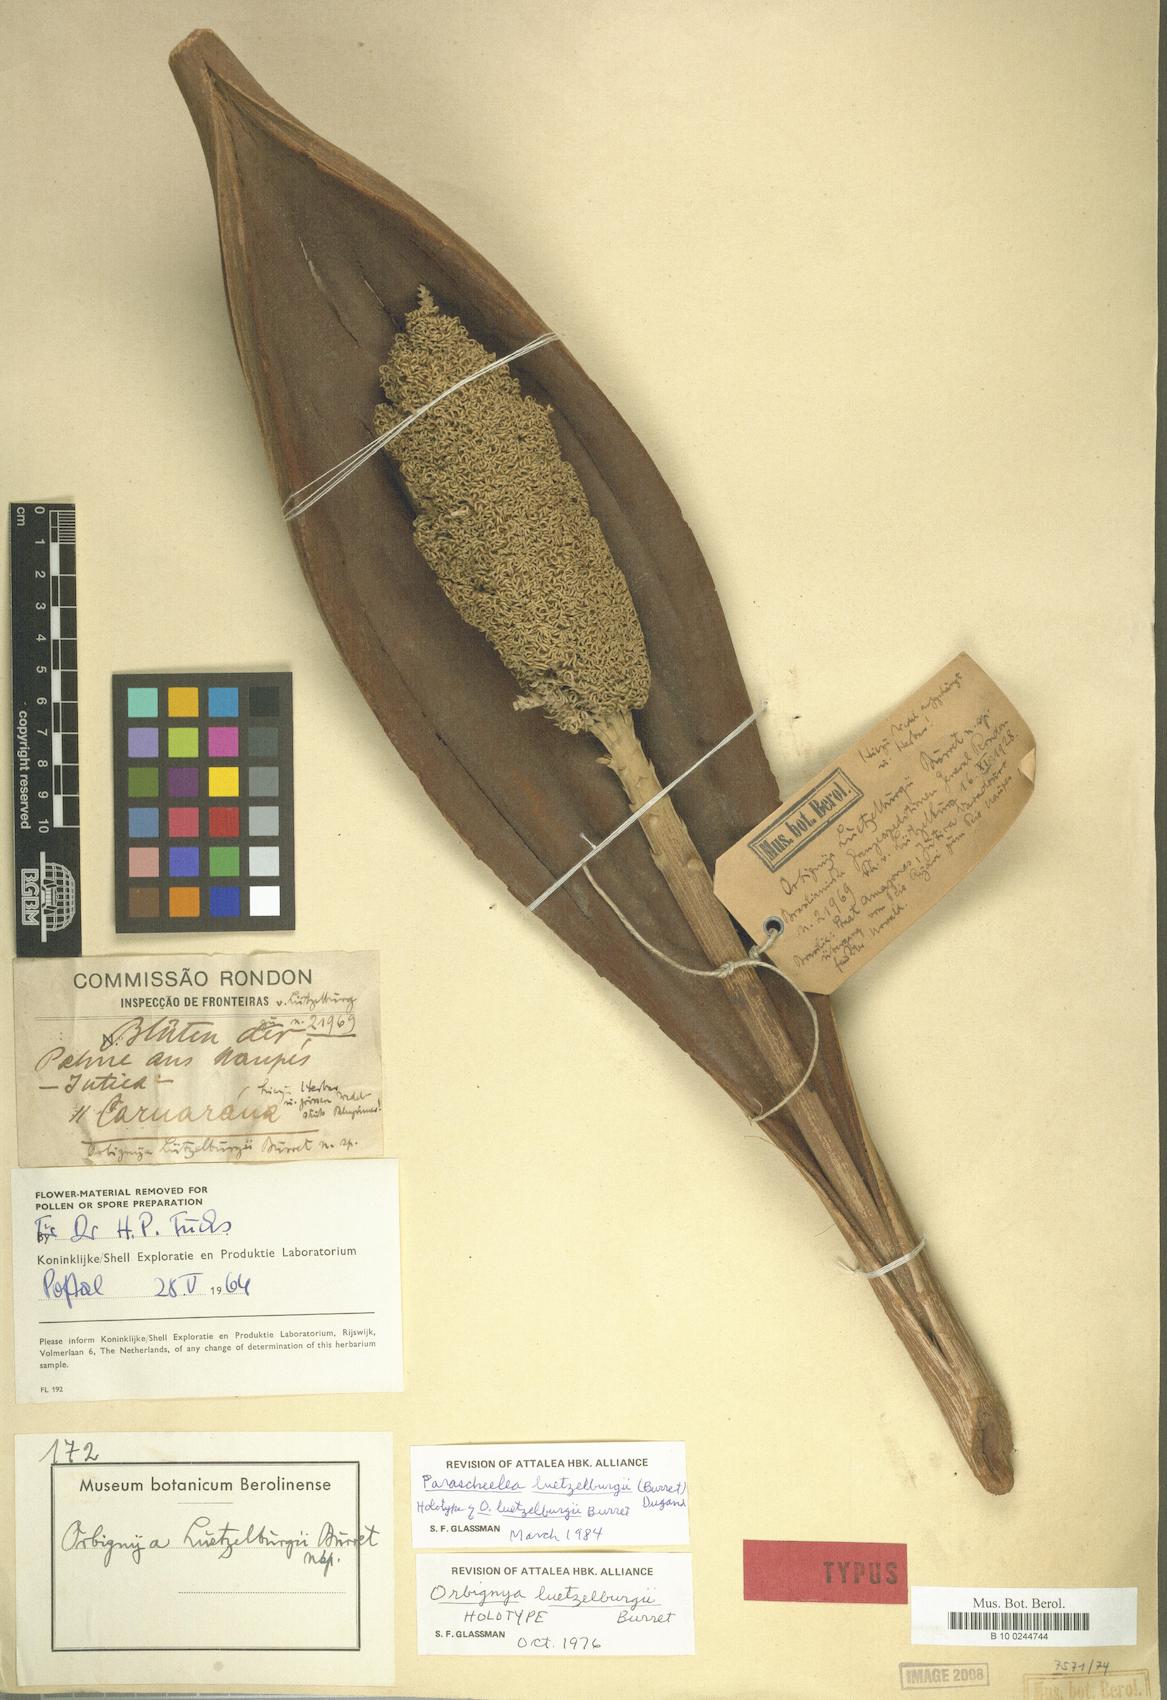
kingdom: Plantae
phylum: Tracheophyta
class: Liliopsida
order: Arecales
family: Arecaceae
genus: Attalea
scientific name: Attalea luetzelburgii
